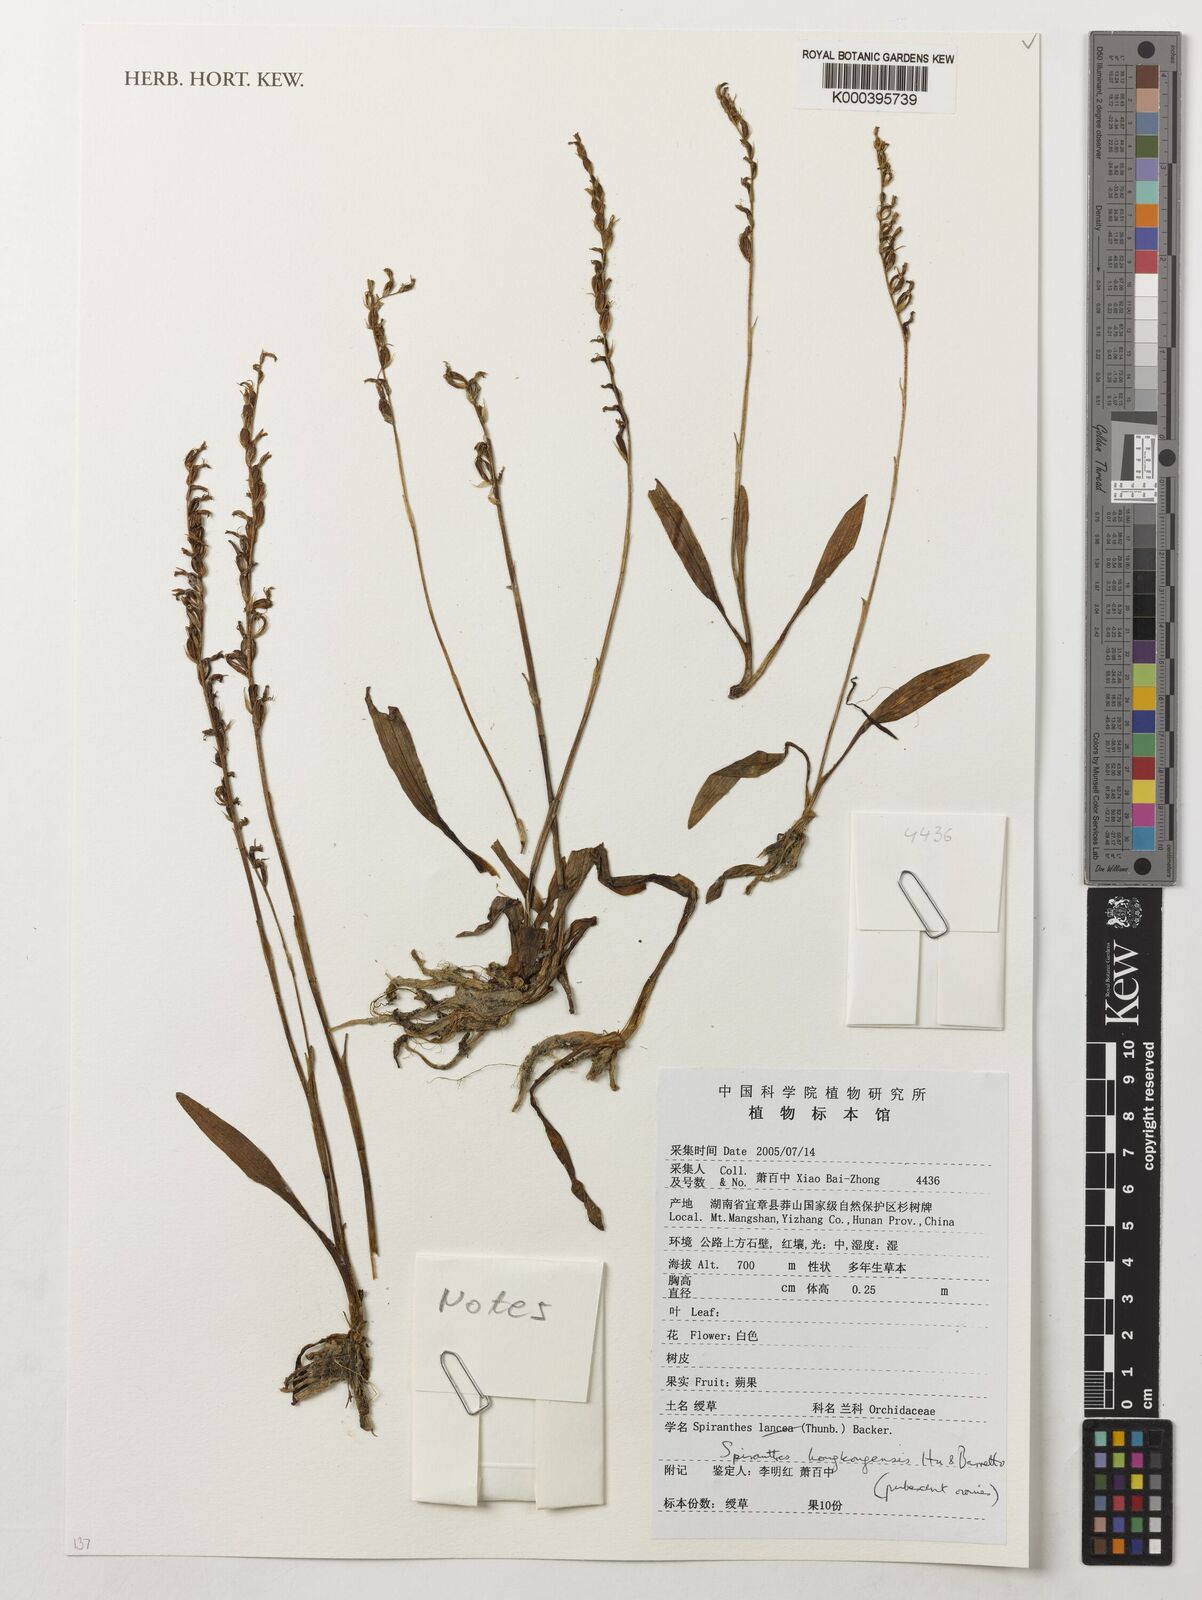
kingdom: Plantae
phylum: Tracheophyta
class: Liliopsida
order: Asparagales
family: Orchidaceae
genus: Spiranthes
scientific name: Spiranthes hongkongensis
